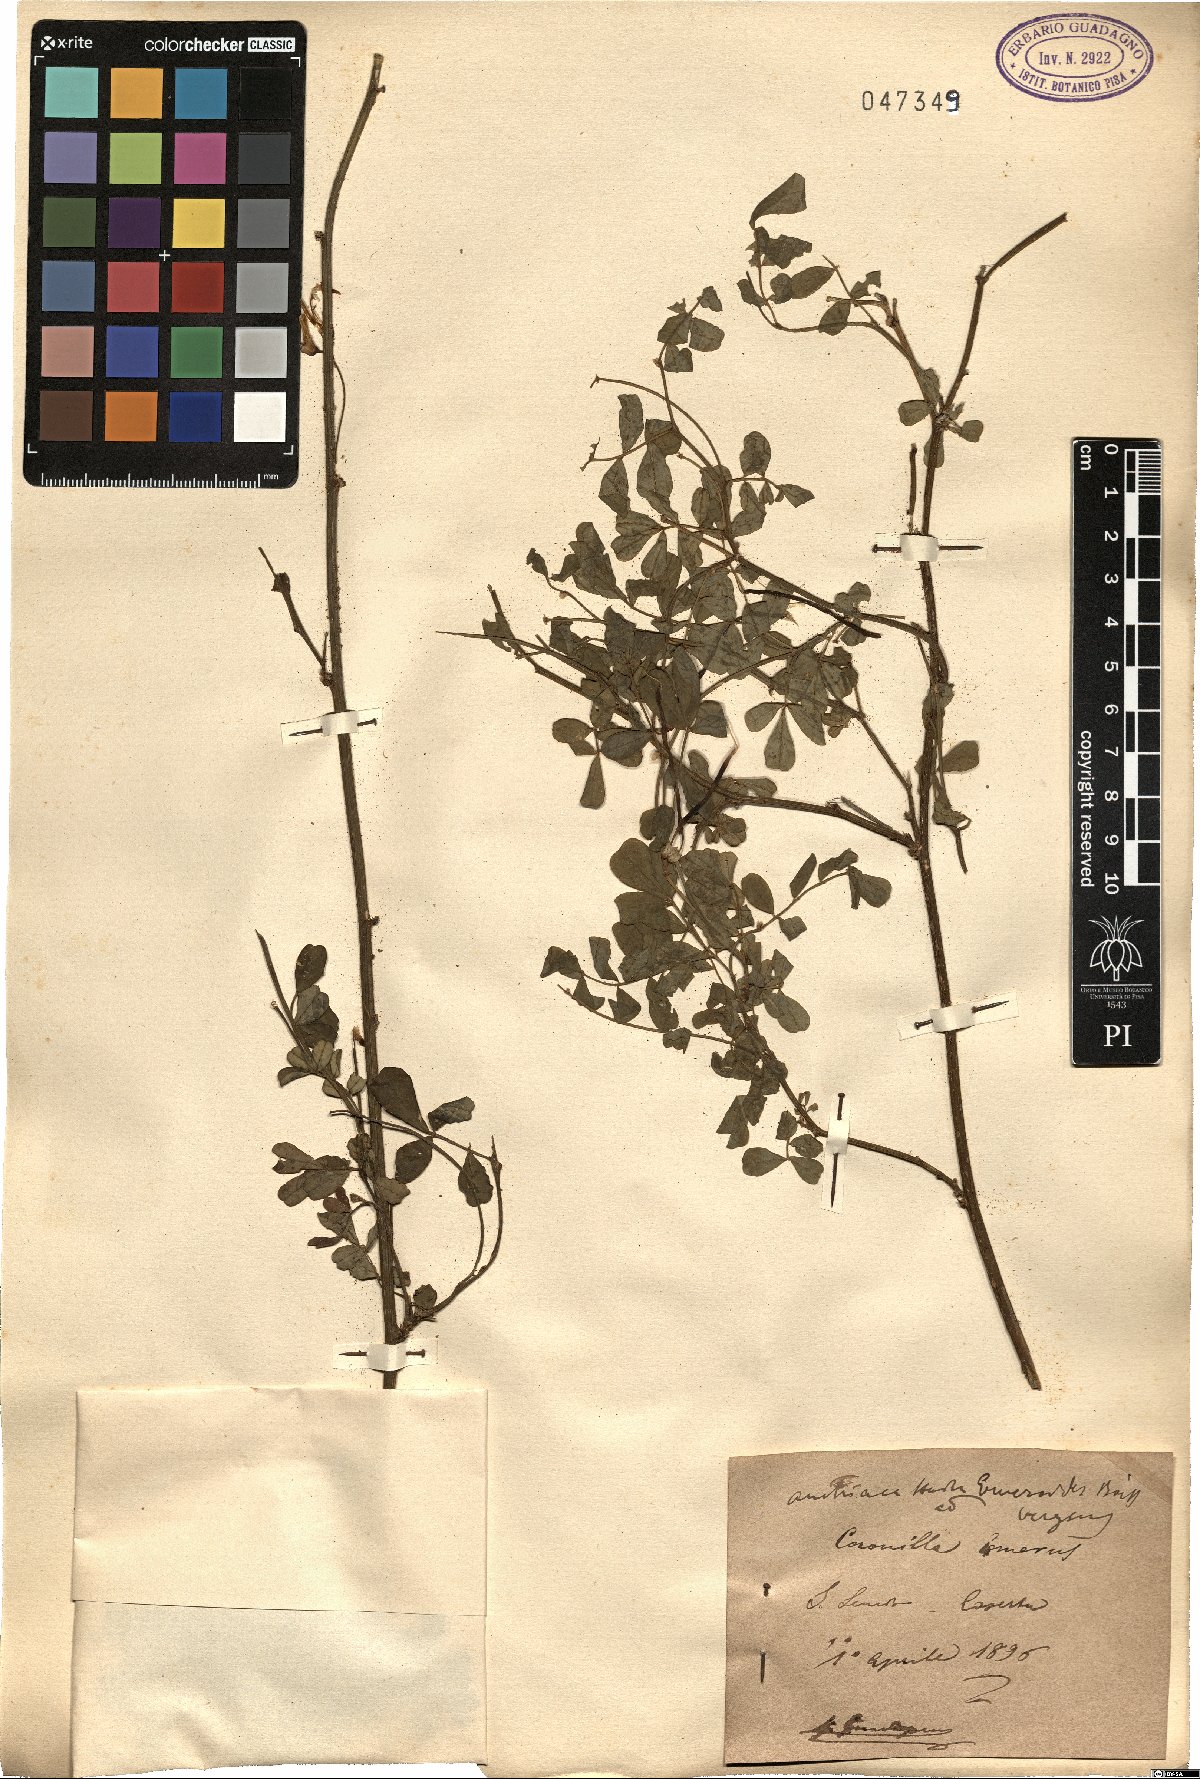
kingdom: Plantae
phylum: Tracheophyta
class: Magnoliopsida
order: Fabales
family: Fabaceae
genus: Hippocrepis
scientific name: Hippocrepis emerus
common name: Scorpion senna
